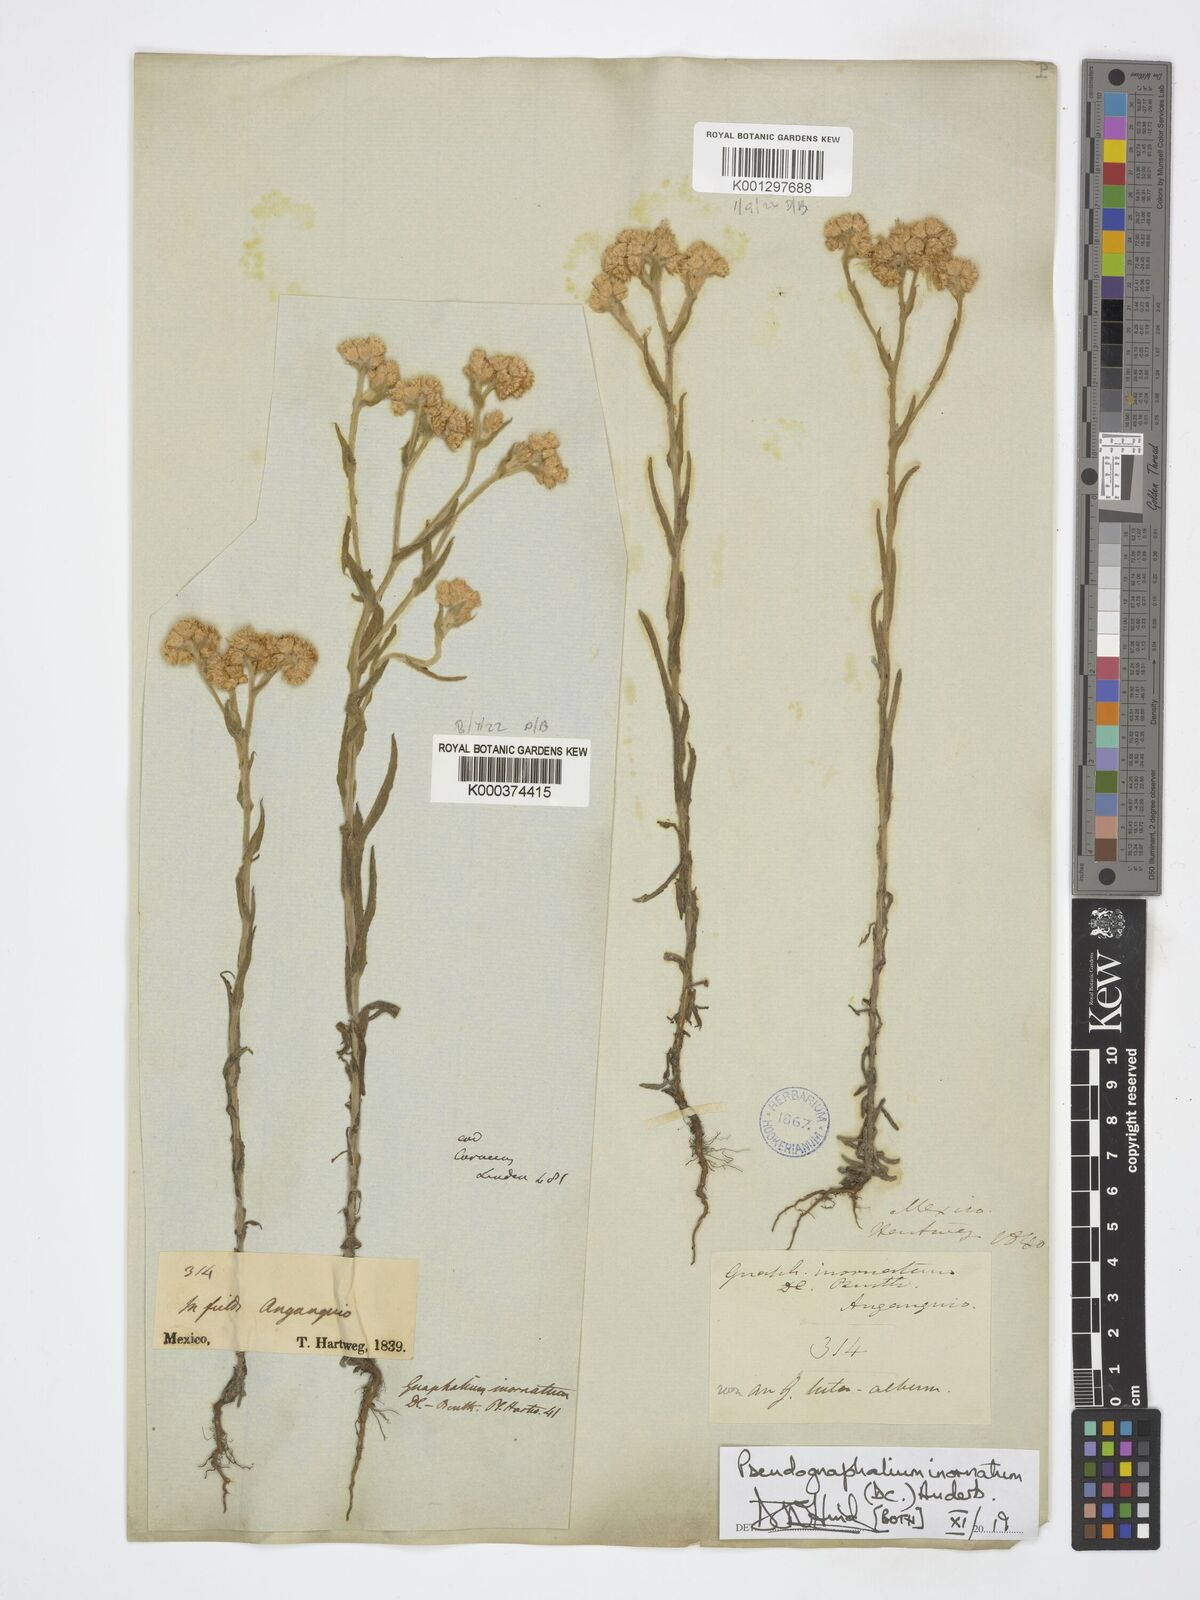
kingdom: Plantae
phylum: Tracheophyta
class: Magnoliopsida
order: Asterales
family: Asteraceae
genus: Pseudognaphalium
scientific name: Pseudognaphalium inornatum
